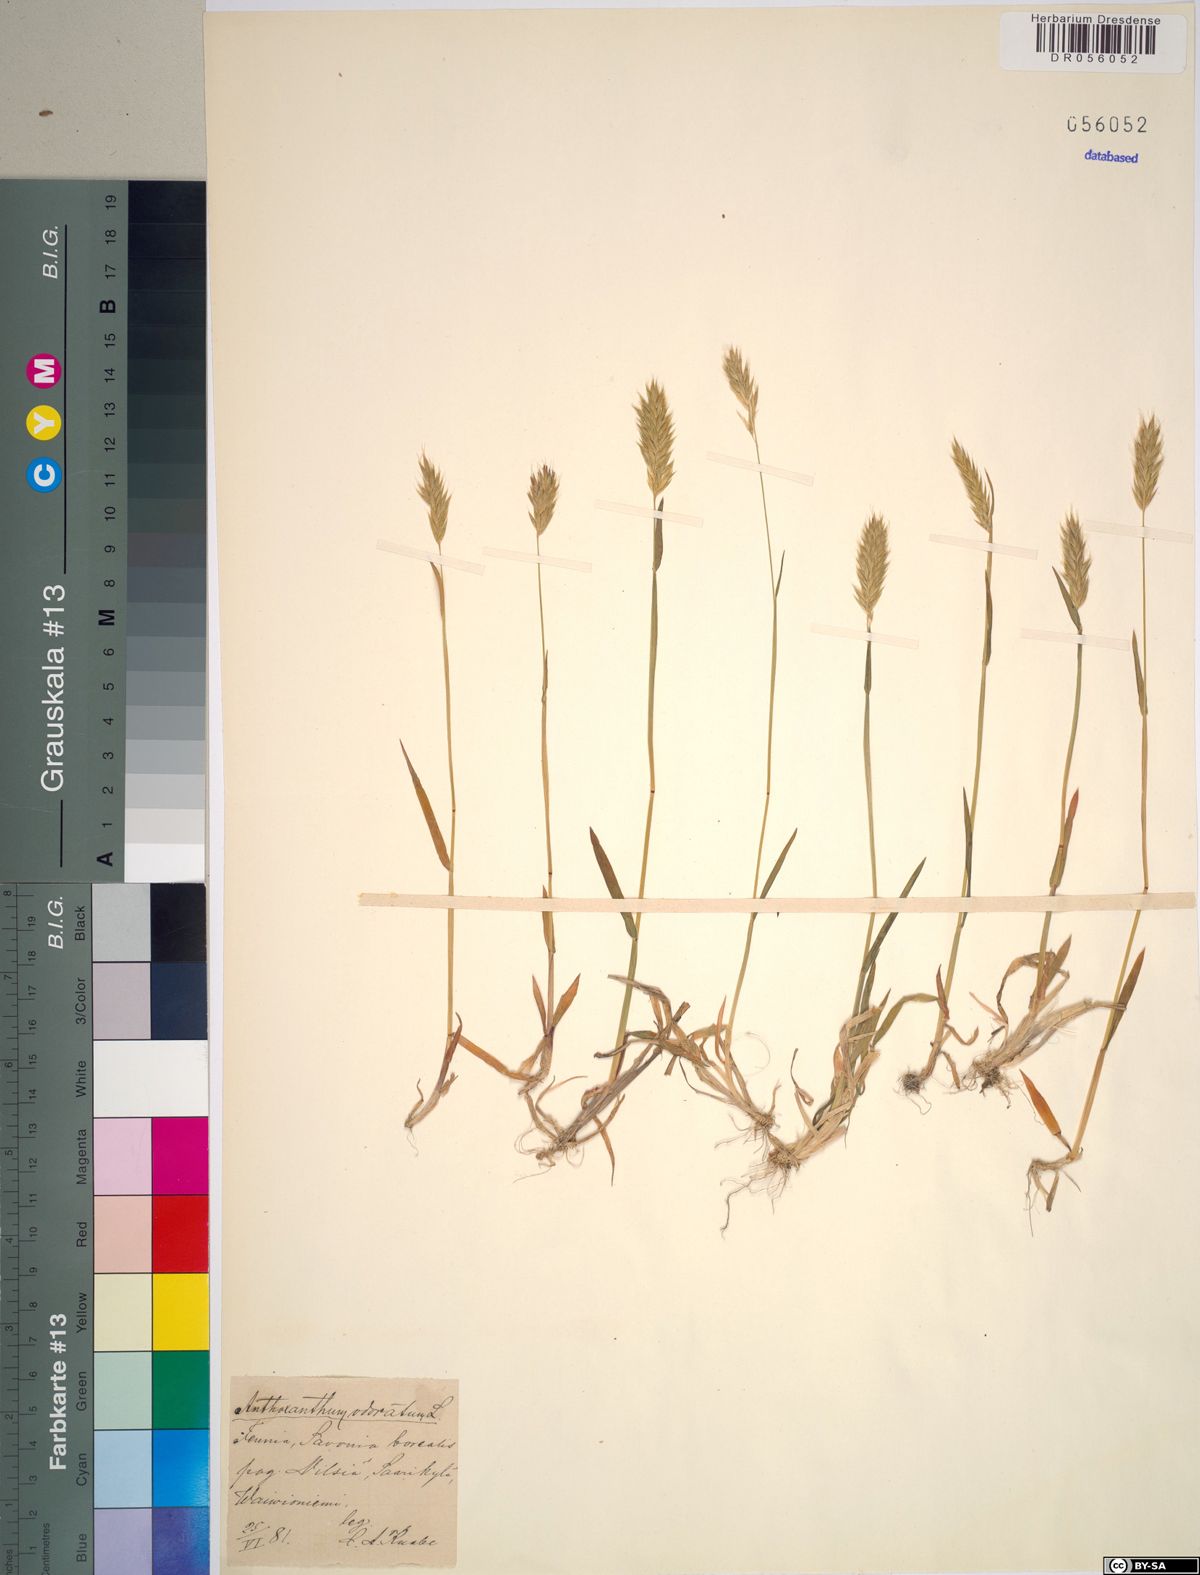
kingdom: Plantae
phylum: Tracheophyta
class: Liliopsida
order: Poales
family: Poaceae
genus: Anthoxanthum
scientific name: Anthoxanthum odoratum
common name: Sweet vernalgrass
